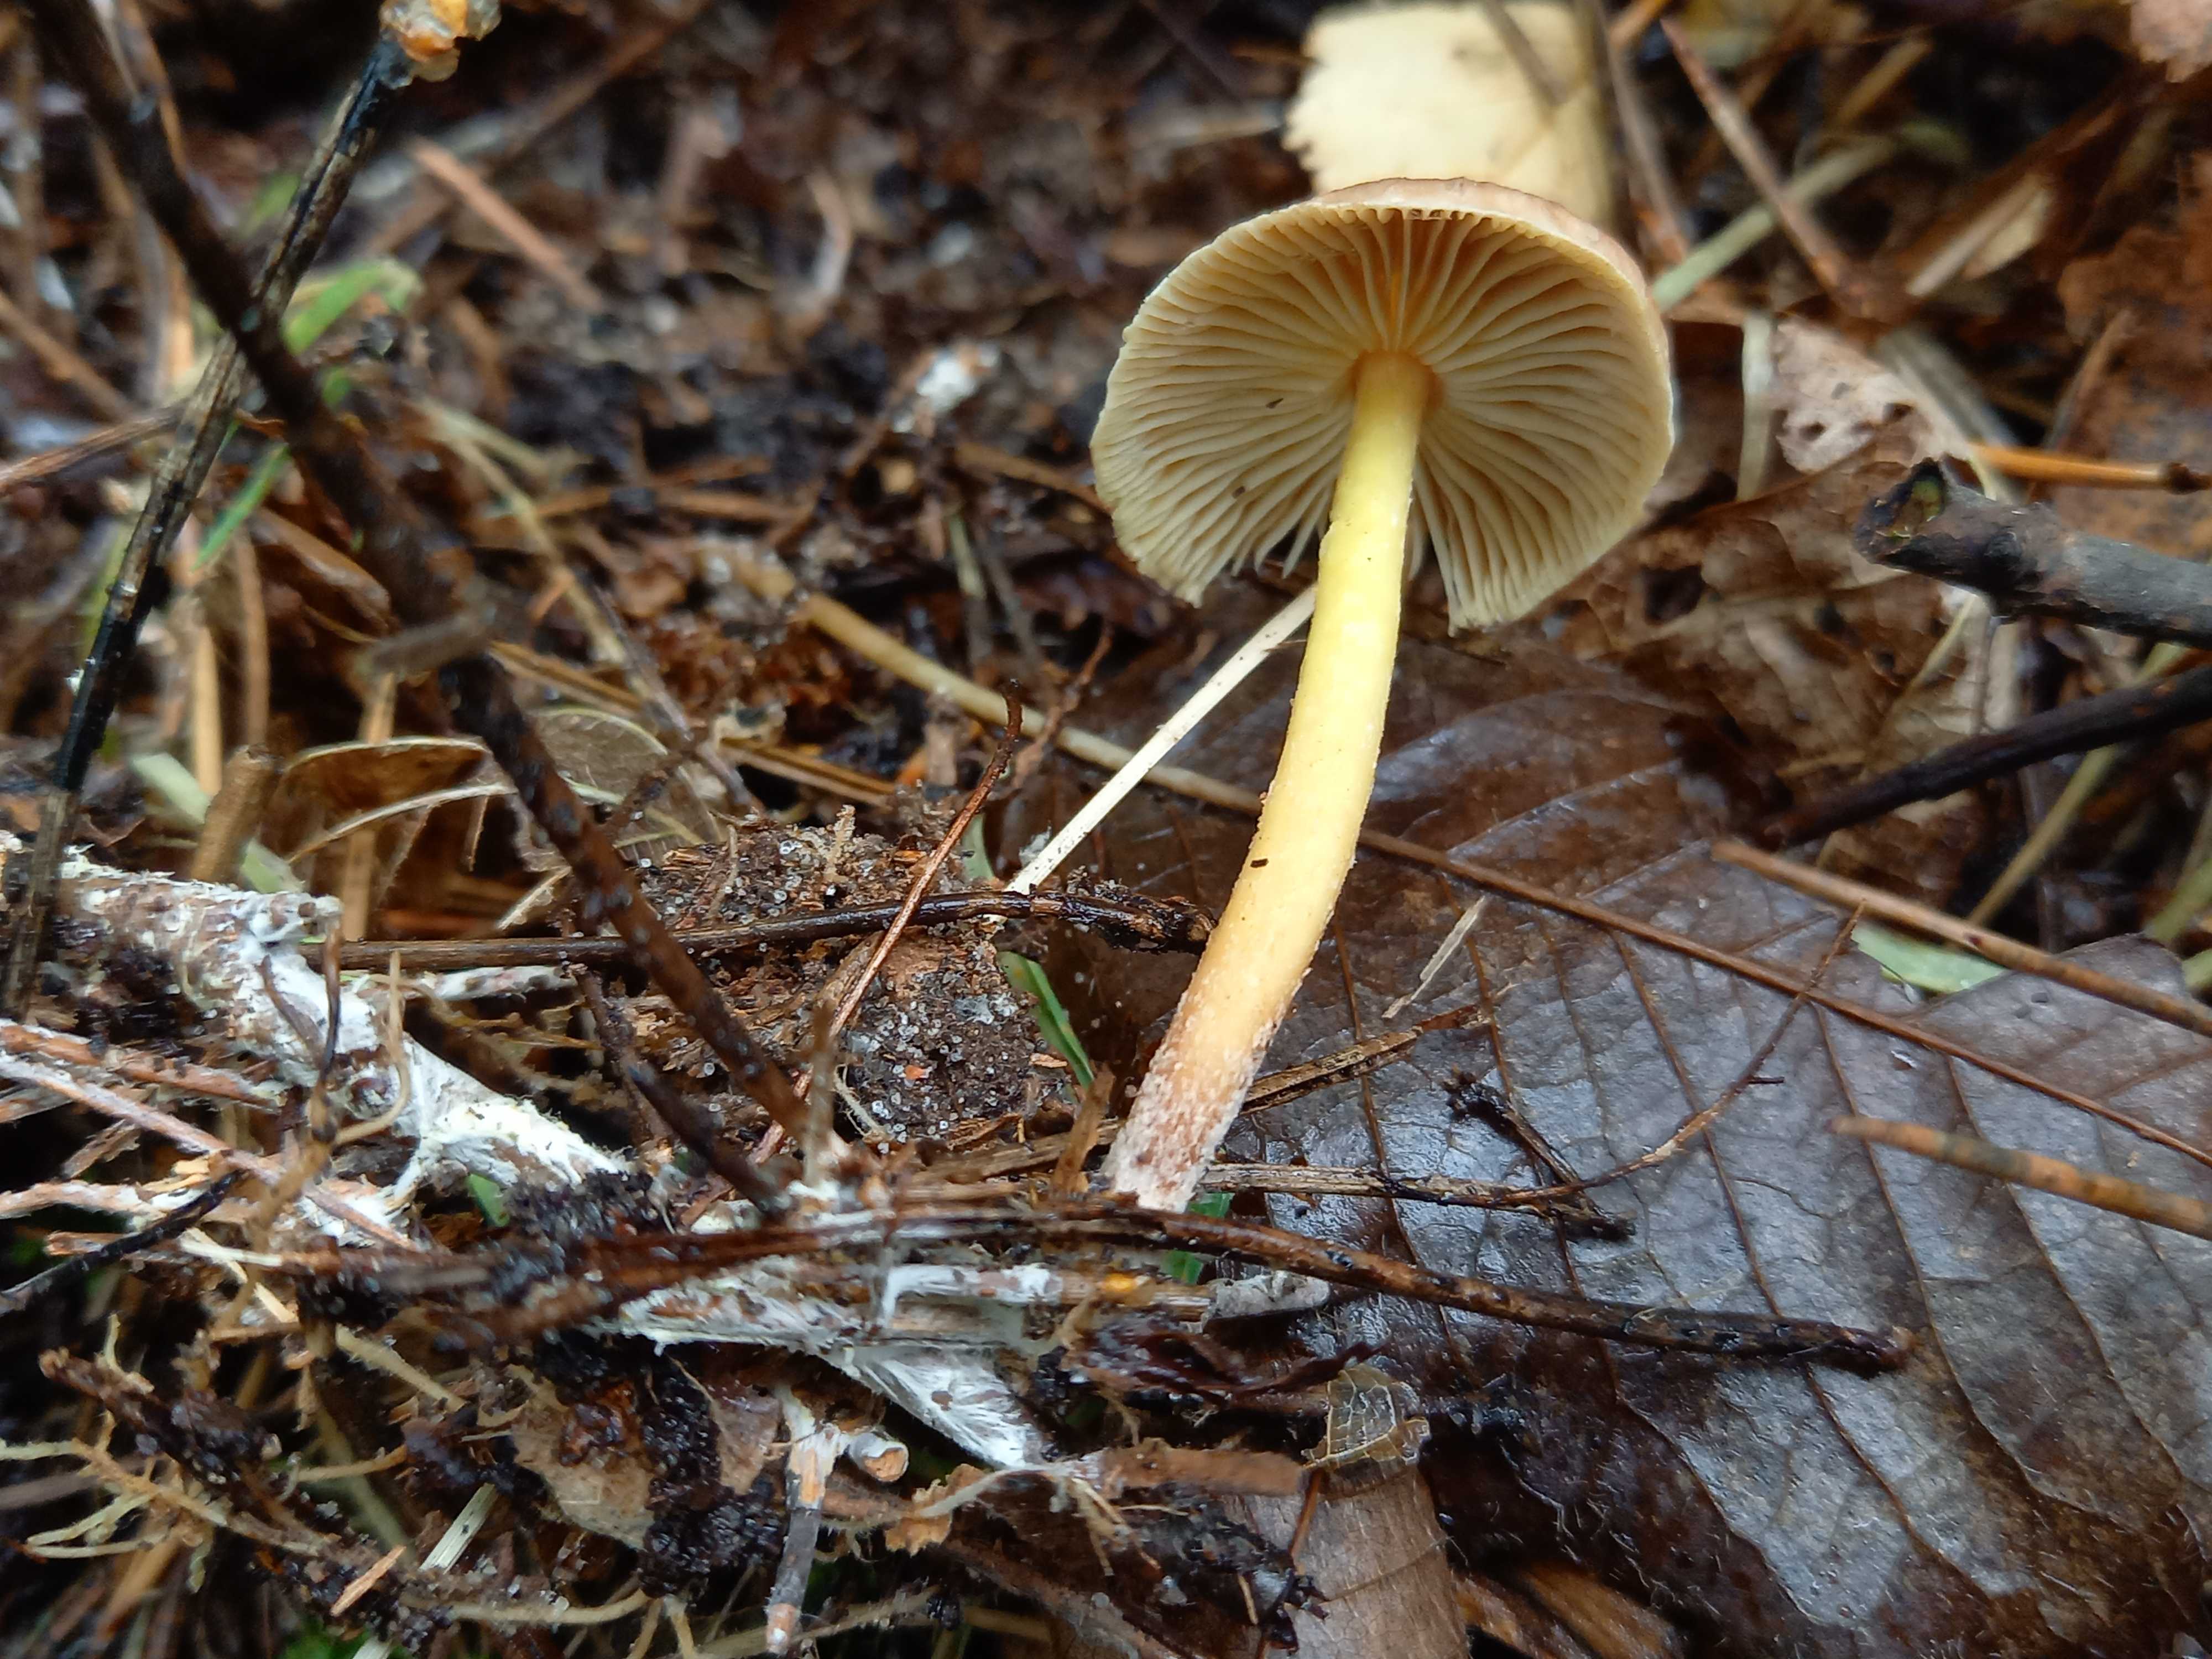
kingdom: Fungi
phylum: Basidiomycota
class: Agaricomycetes
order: Agaricales
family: Omphalotaceae
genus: Collybiopsis
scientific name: Collybiopsis peronata
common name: bestøvlet fladhat
